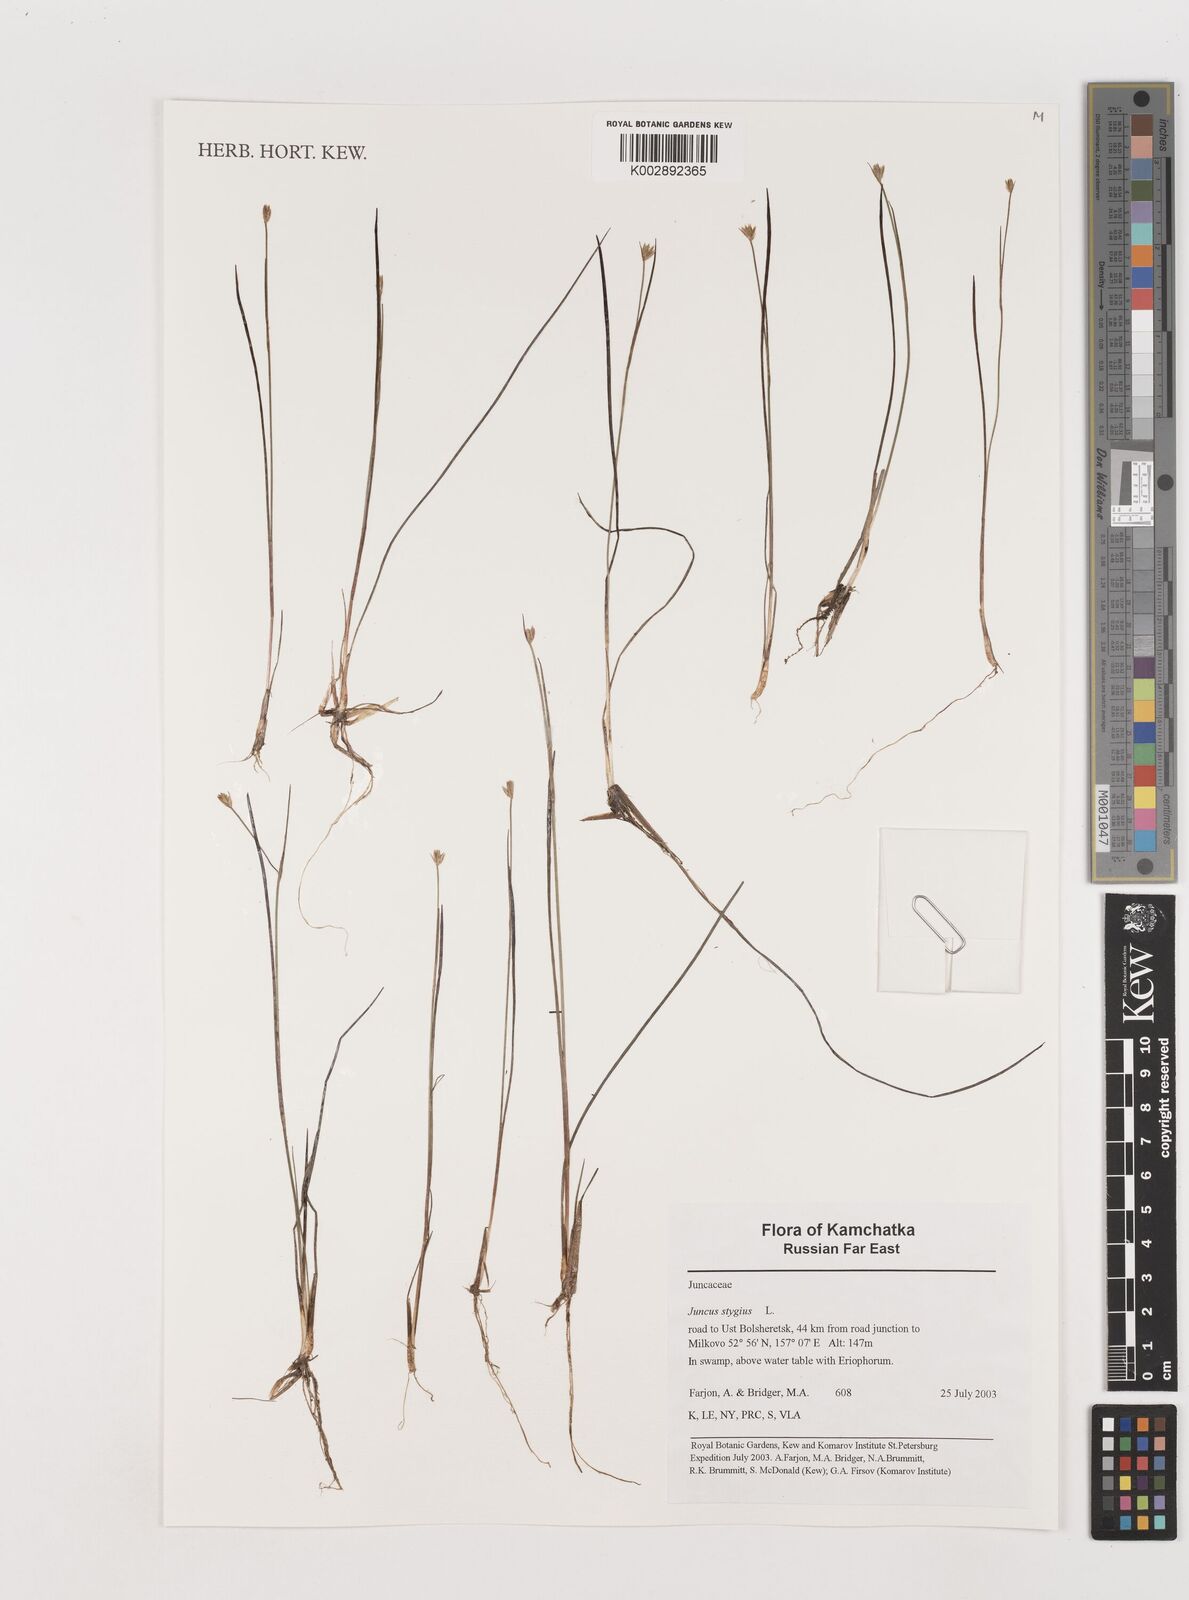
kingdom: Plantae
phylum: Tracheophyta
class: Liliopsida
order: Poales
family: Juncaceae
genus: Juncus
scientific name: Juncus stygius
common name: Bog rush
